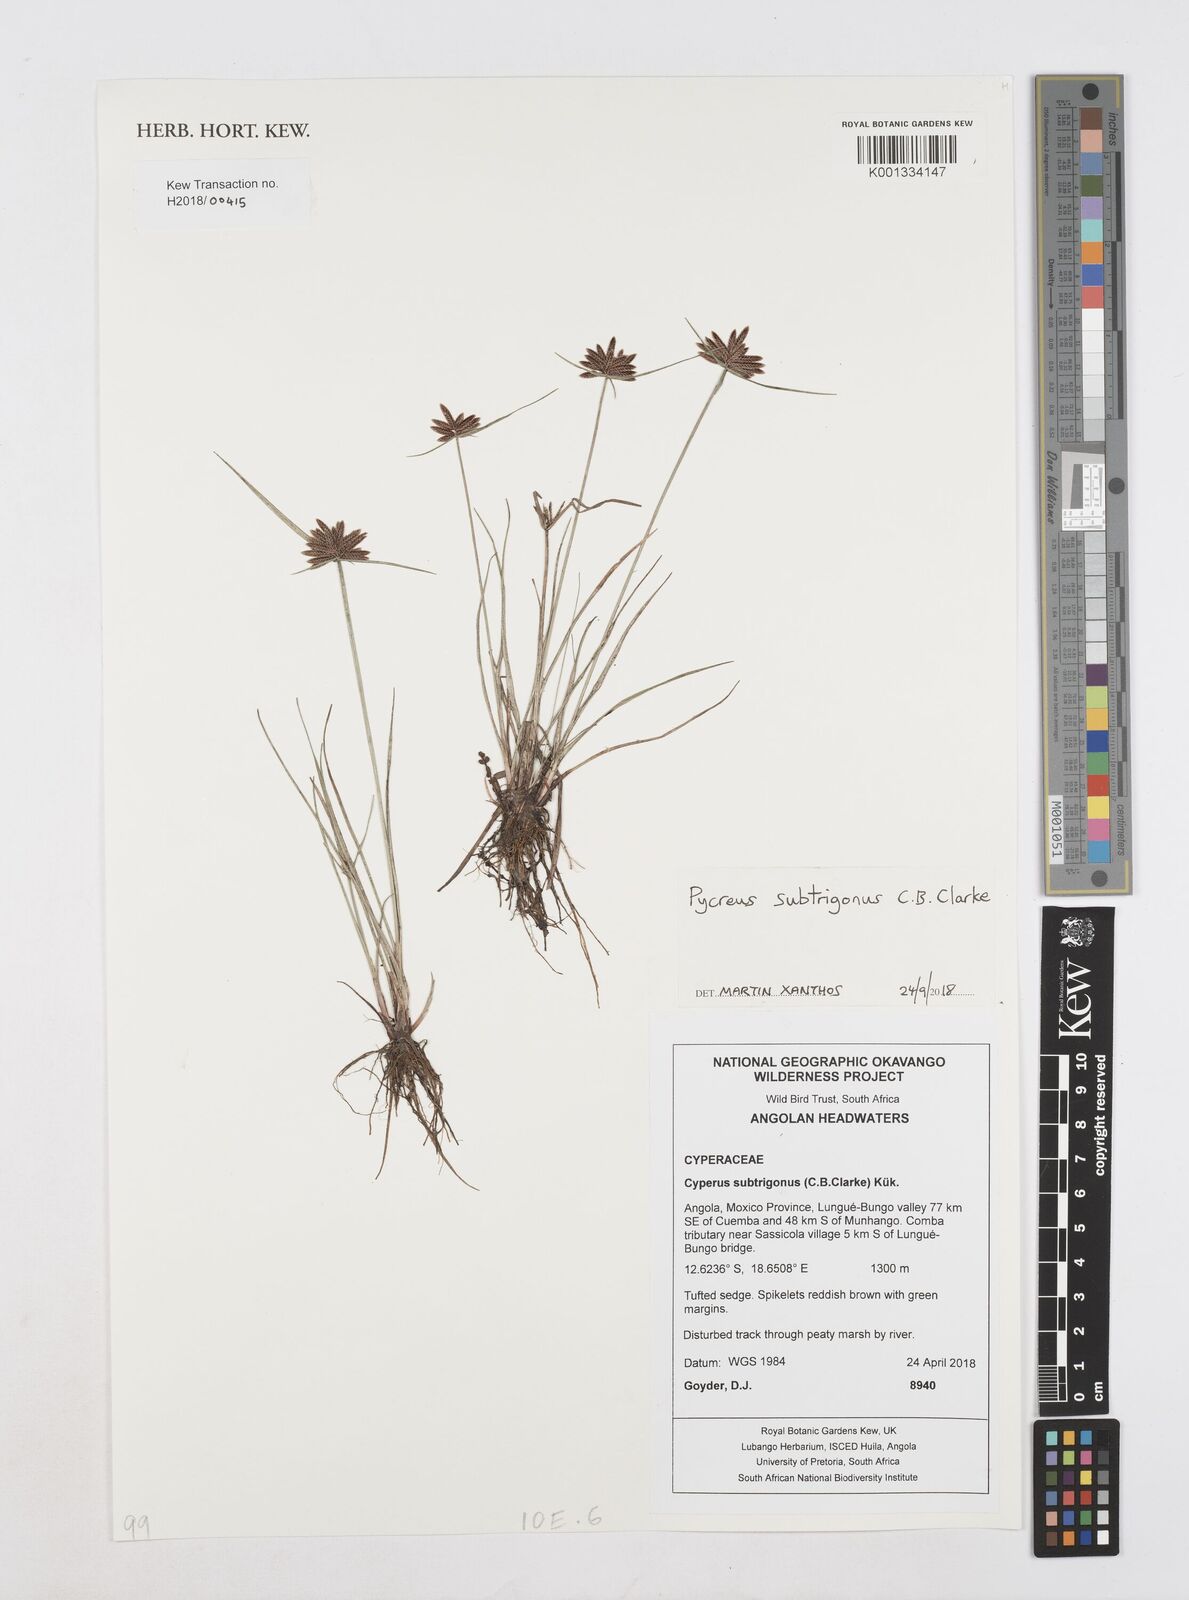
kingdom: Plantae
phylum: Tracheophyta
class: Liliopsida
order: Poales
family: Cyperaceae
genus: Cyperus
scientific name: Cyperus subtrigonus
